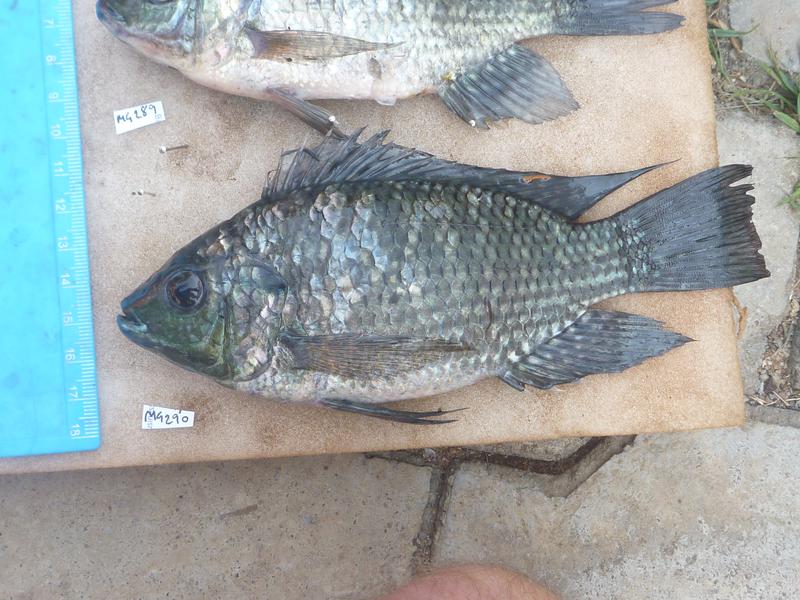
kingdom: Animalia
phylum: Chordata
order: Perciformes
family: Cichlidae
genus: Oreochromis
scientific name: Oreochromis leucostictus
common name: Blue spotted tilapia
